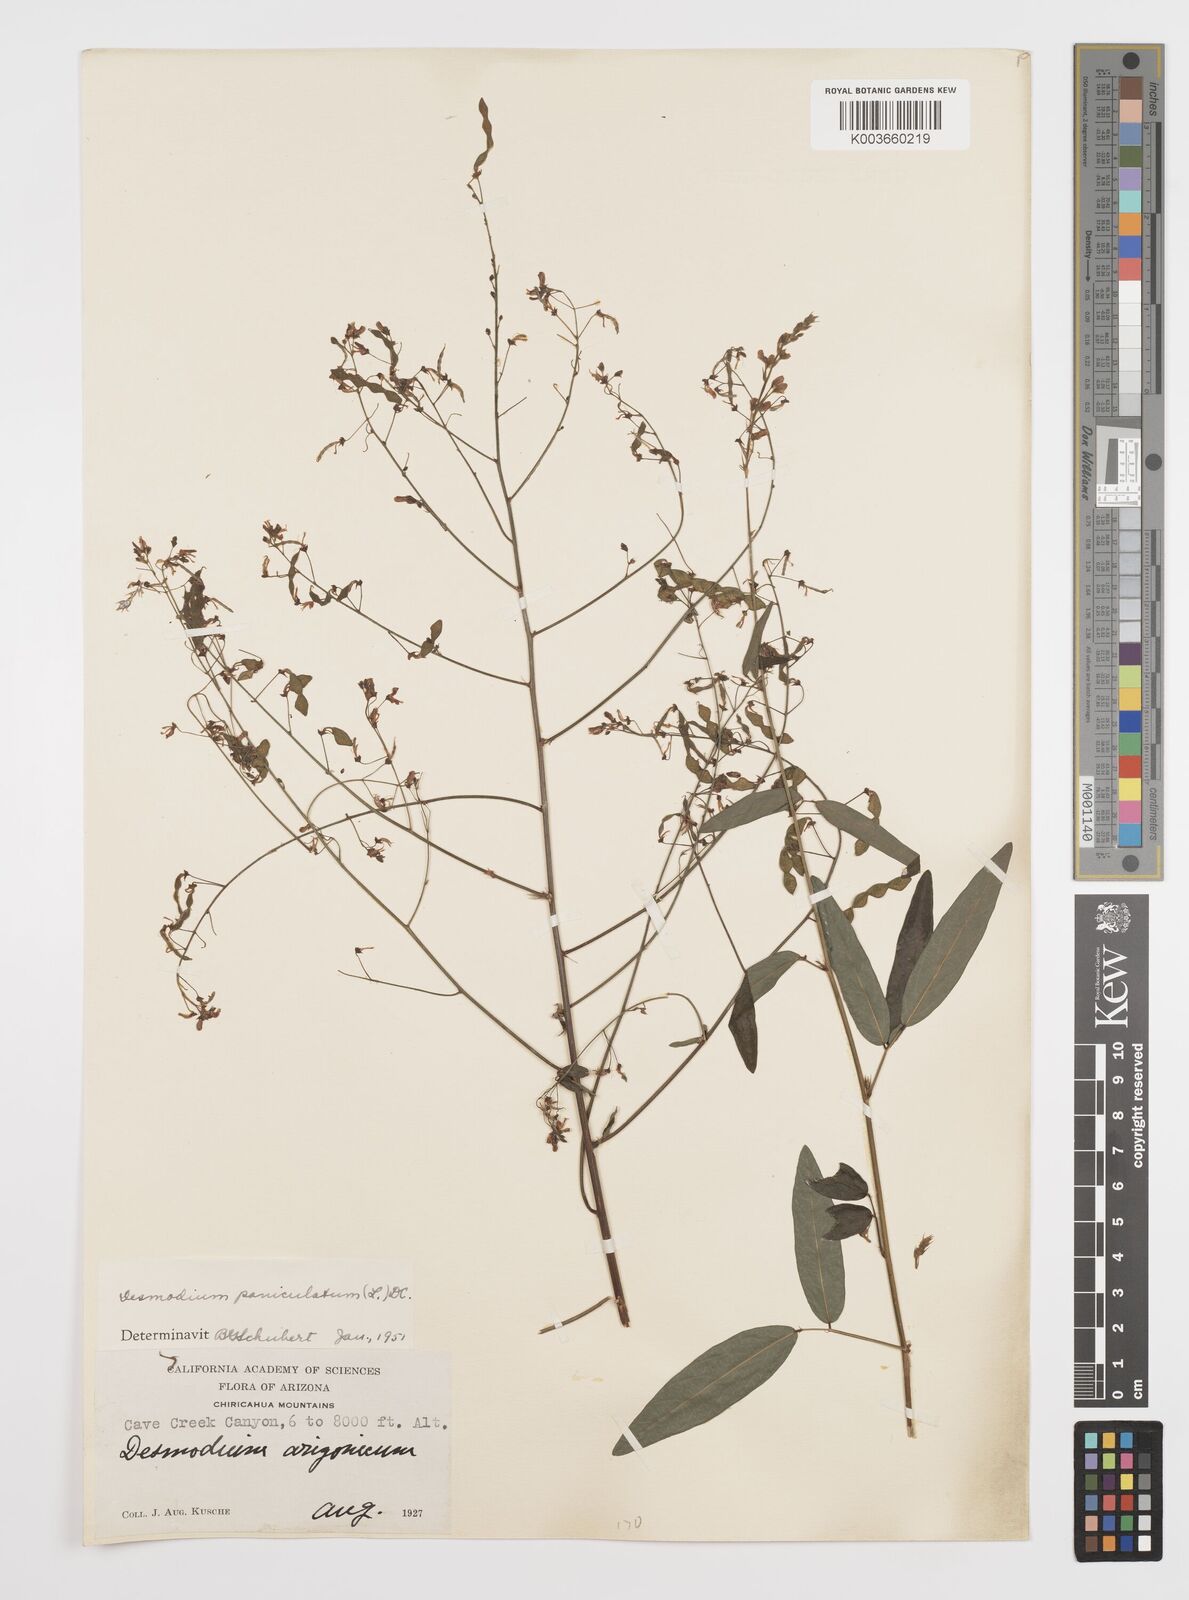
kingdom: Plantae
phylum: Tracheophyta
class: Magnoliopsida
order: Fabales
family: Fabaceae
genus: Desmodium
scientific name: Desmodium paniculatum
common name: Panicled tick-clover
